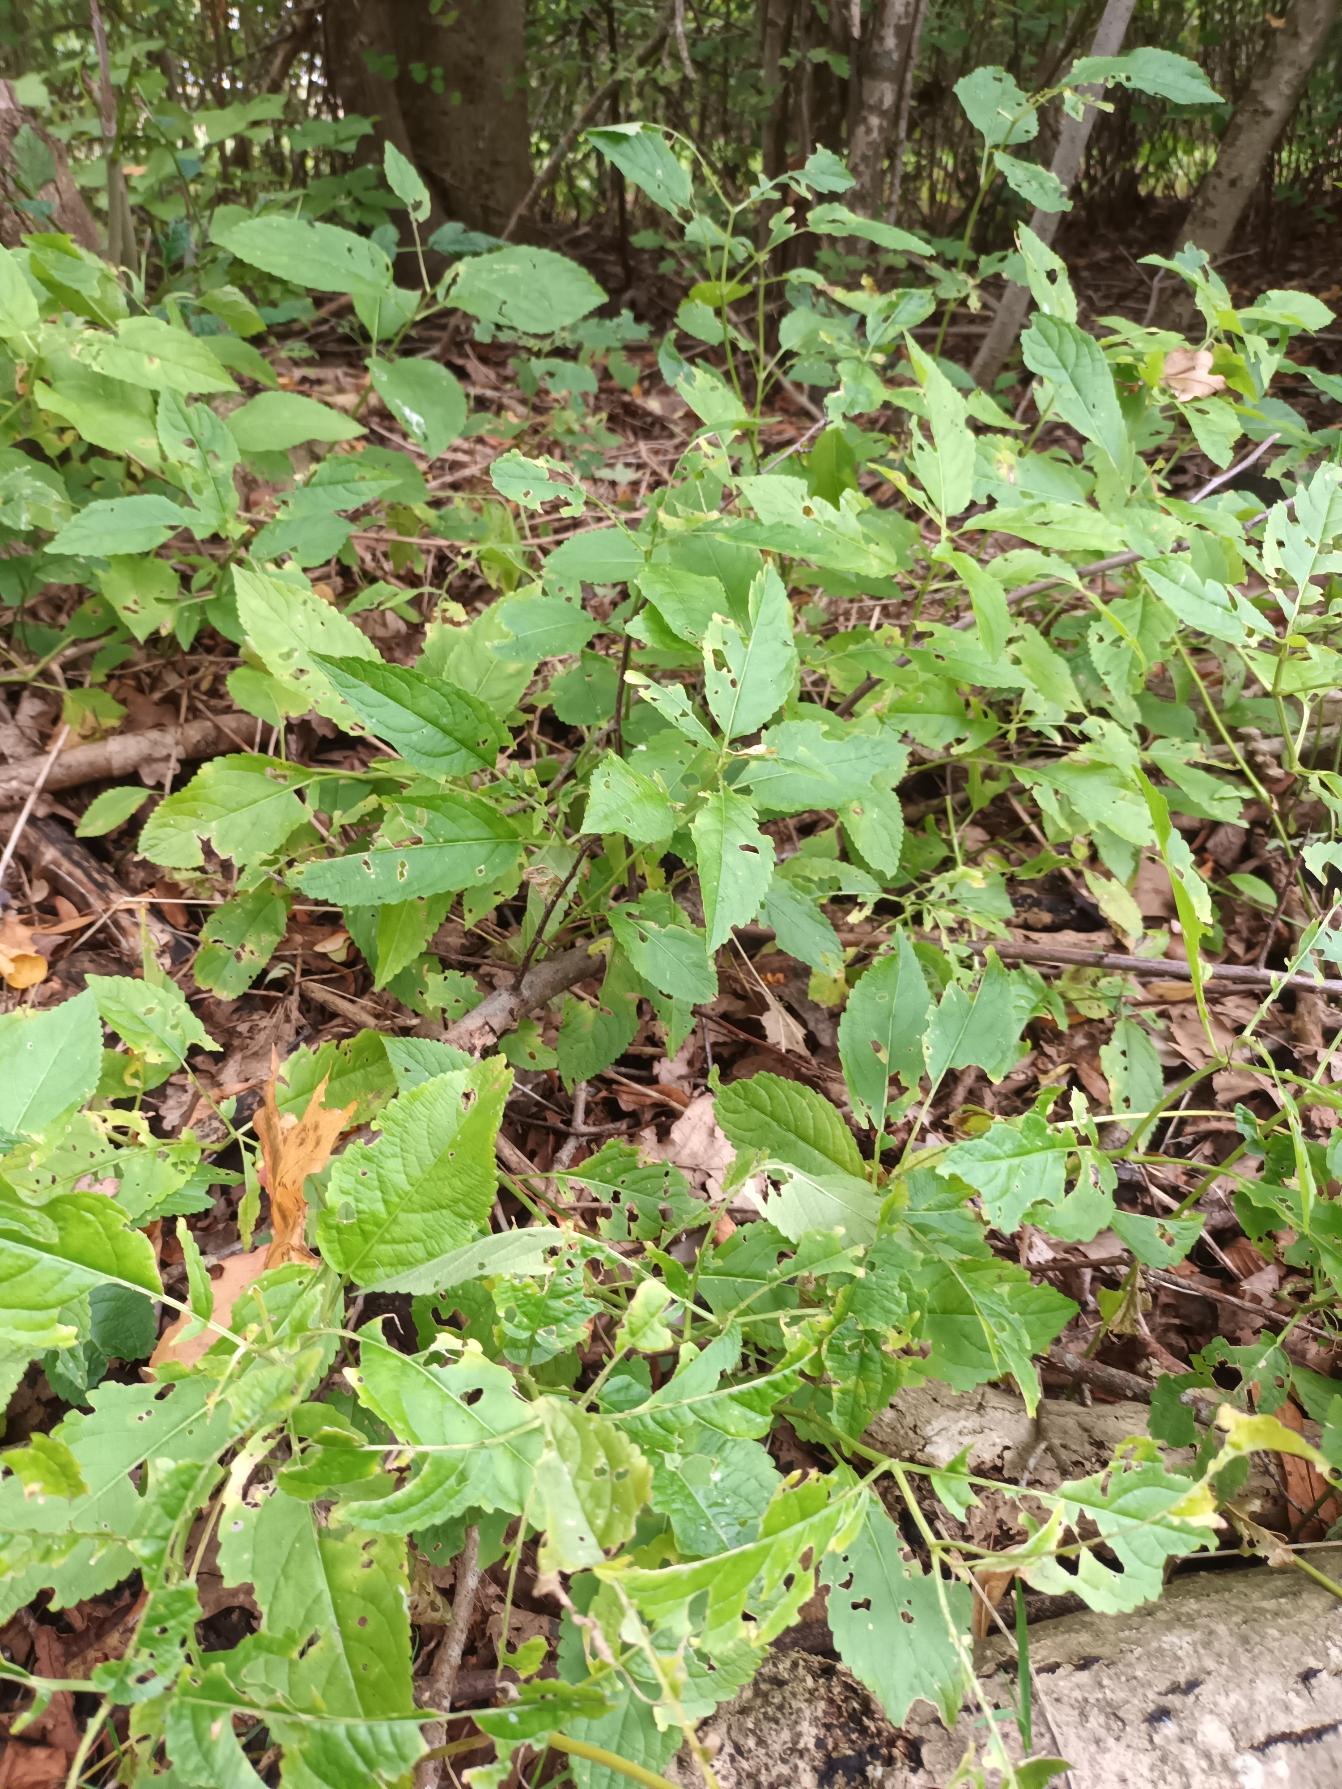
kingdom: Plantae
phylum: Tracheophyta
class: Magnoliopsida
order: Malpighiales
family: Euphorbiaceae
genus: Mercurialis
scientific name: Mercurialis perennis
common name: Almindelig bingelurt
